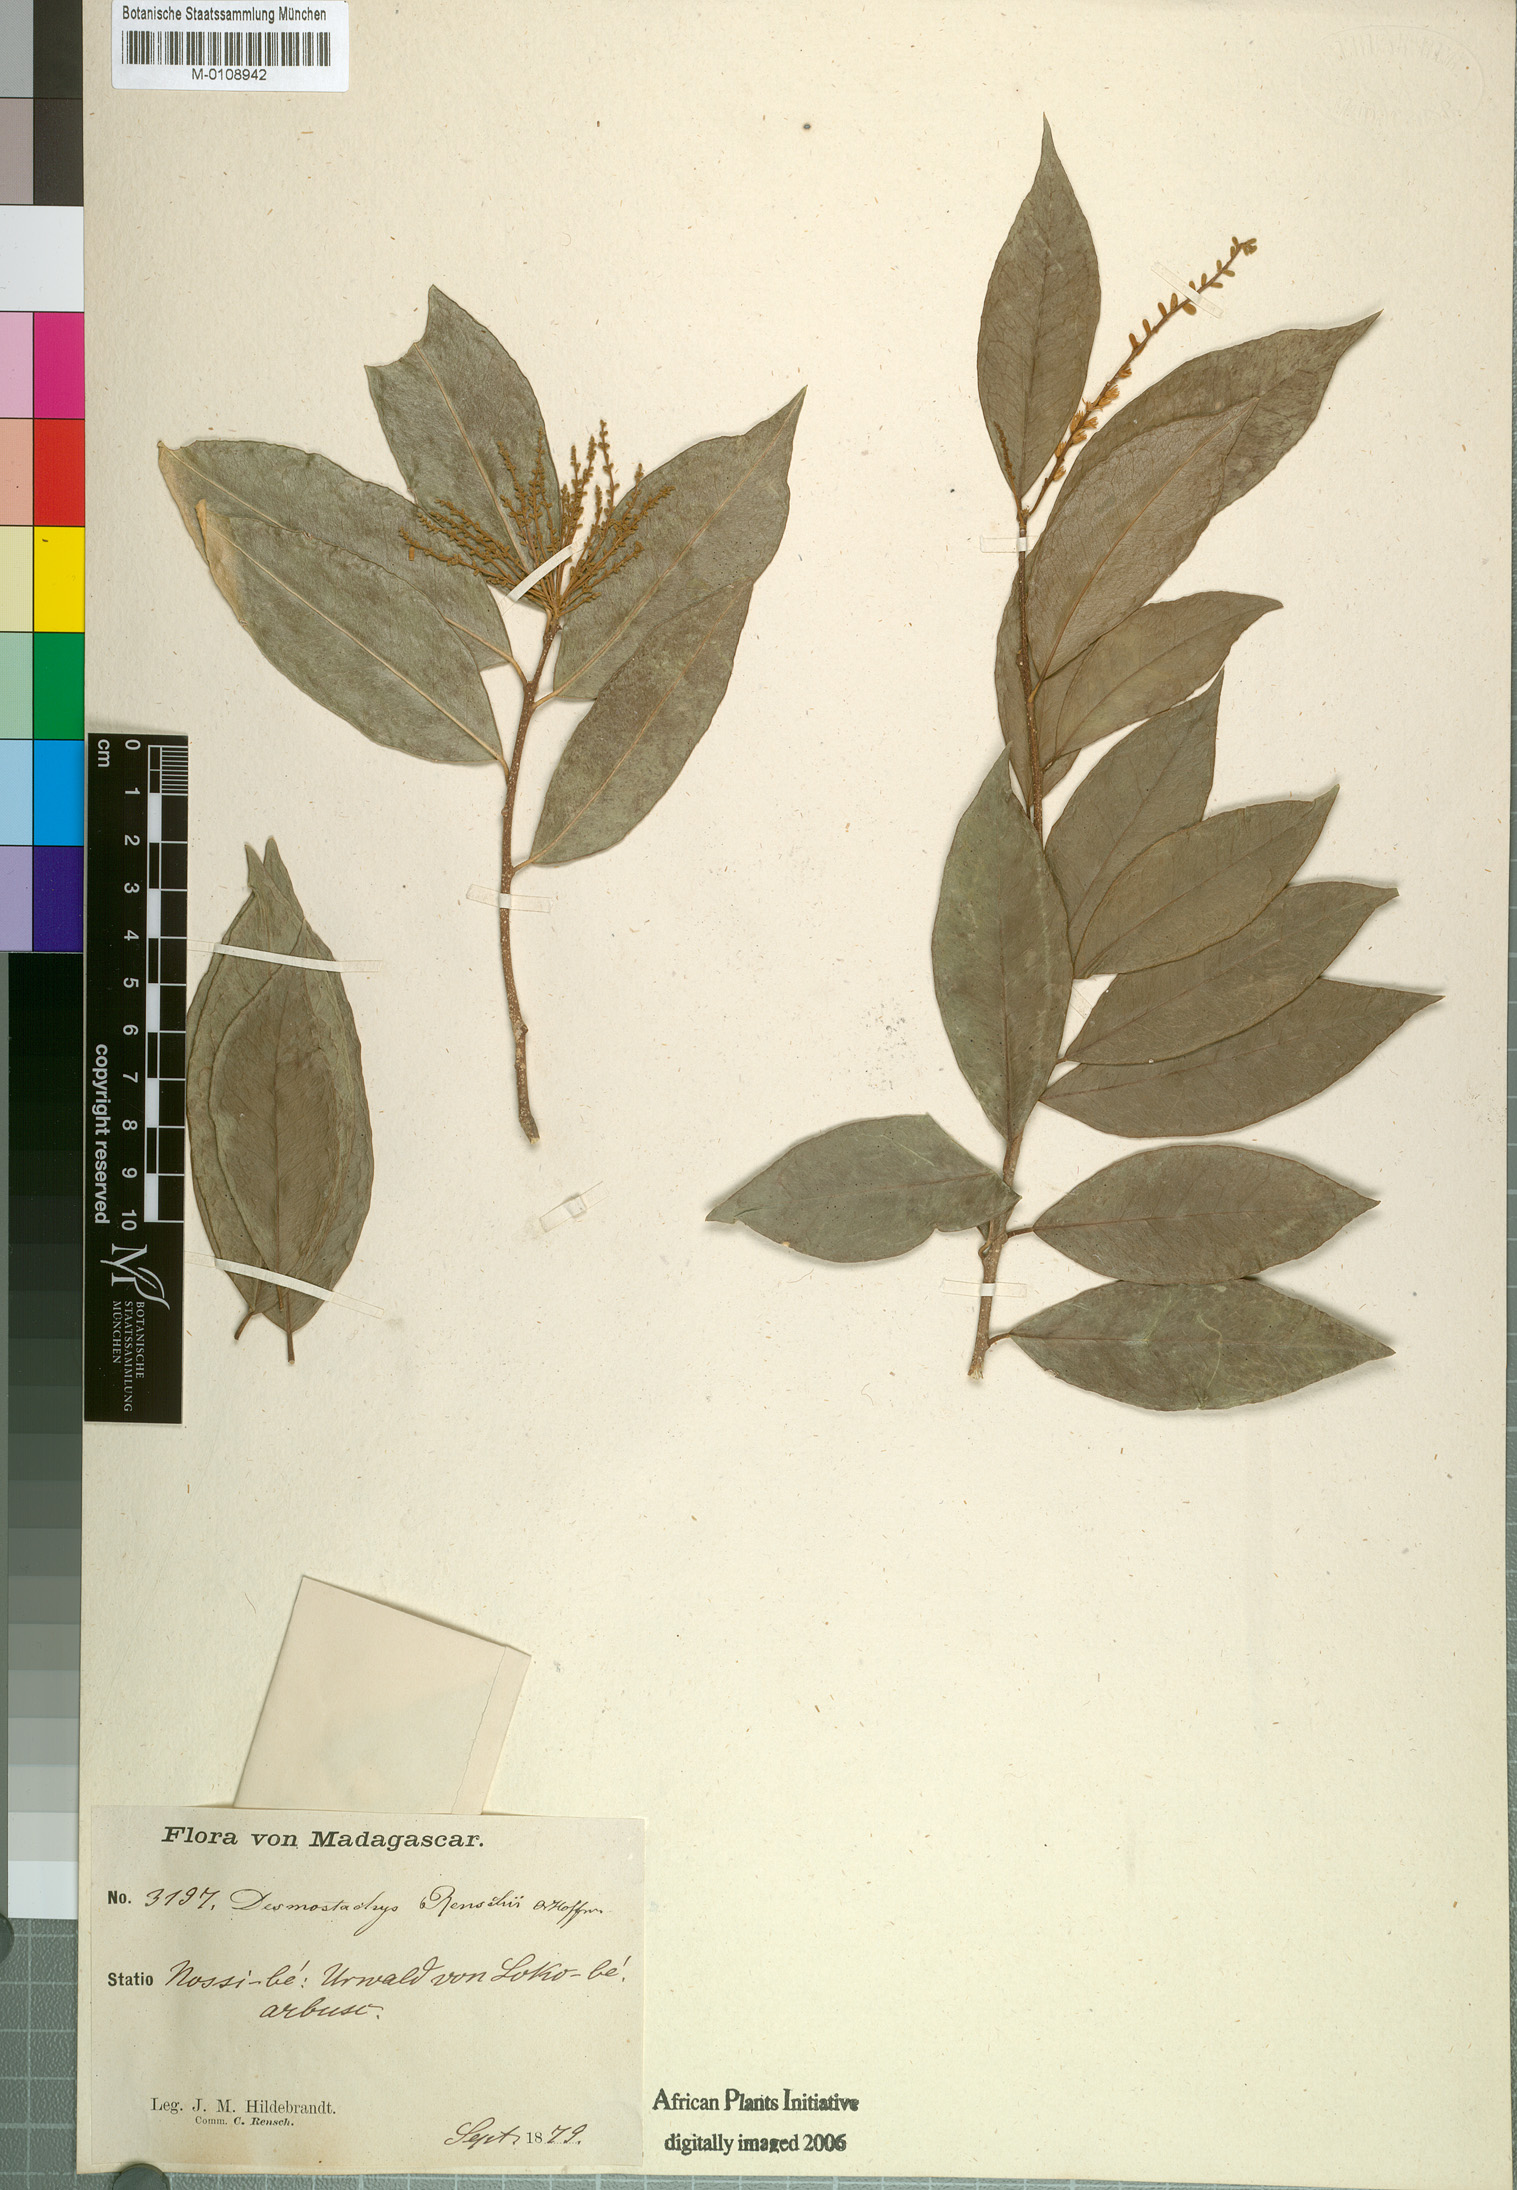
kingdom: Plantae
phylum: Tracheophyta
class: Magnoliopsida
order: Icacinales
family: Icacinaceae
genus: Desmostachys
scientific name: Desmostachys planchonianus
